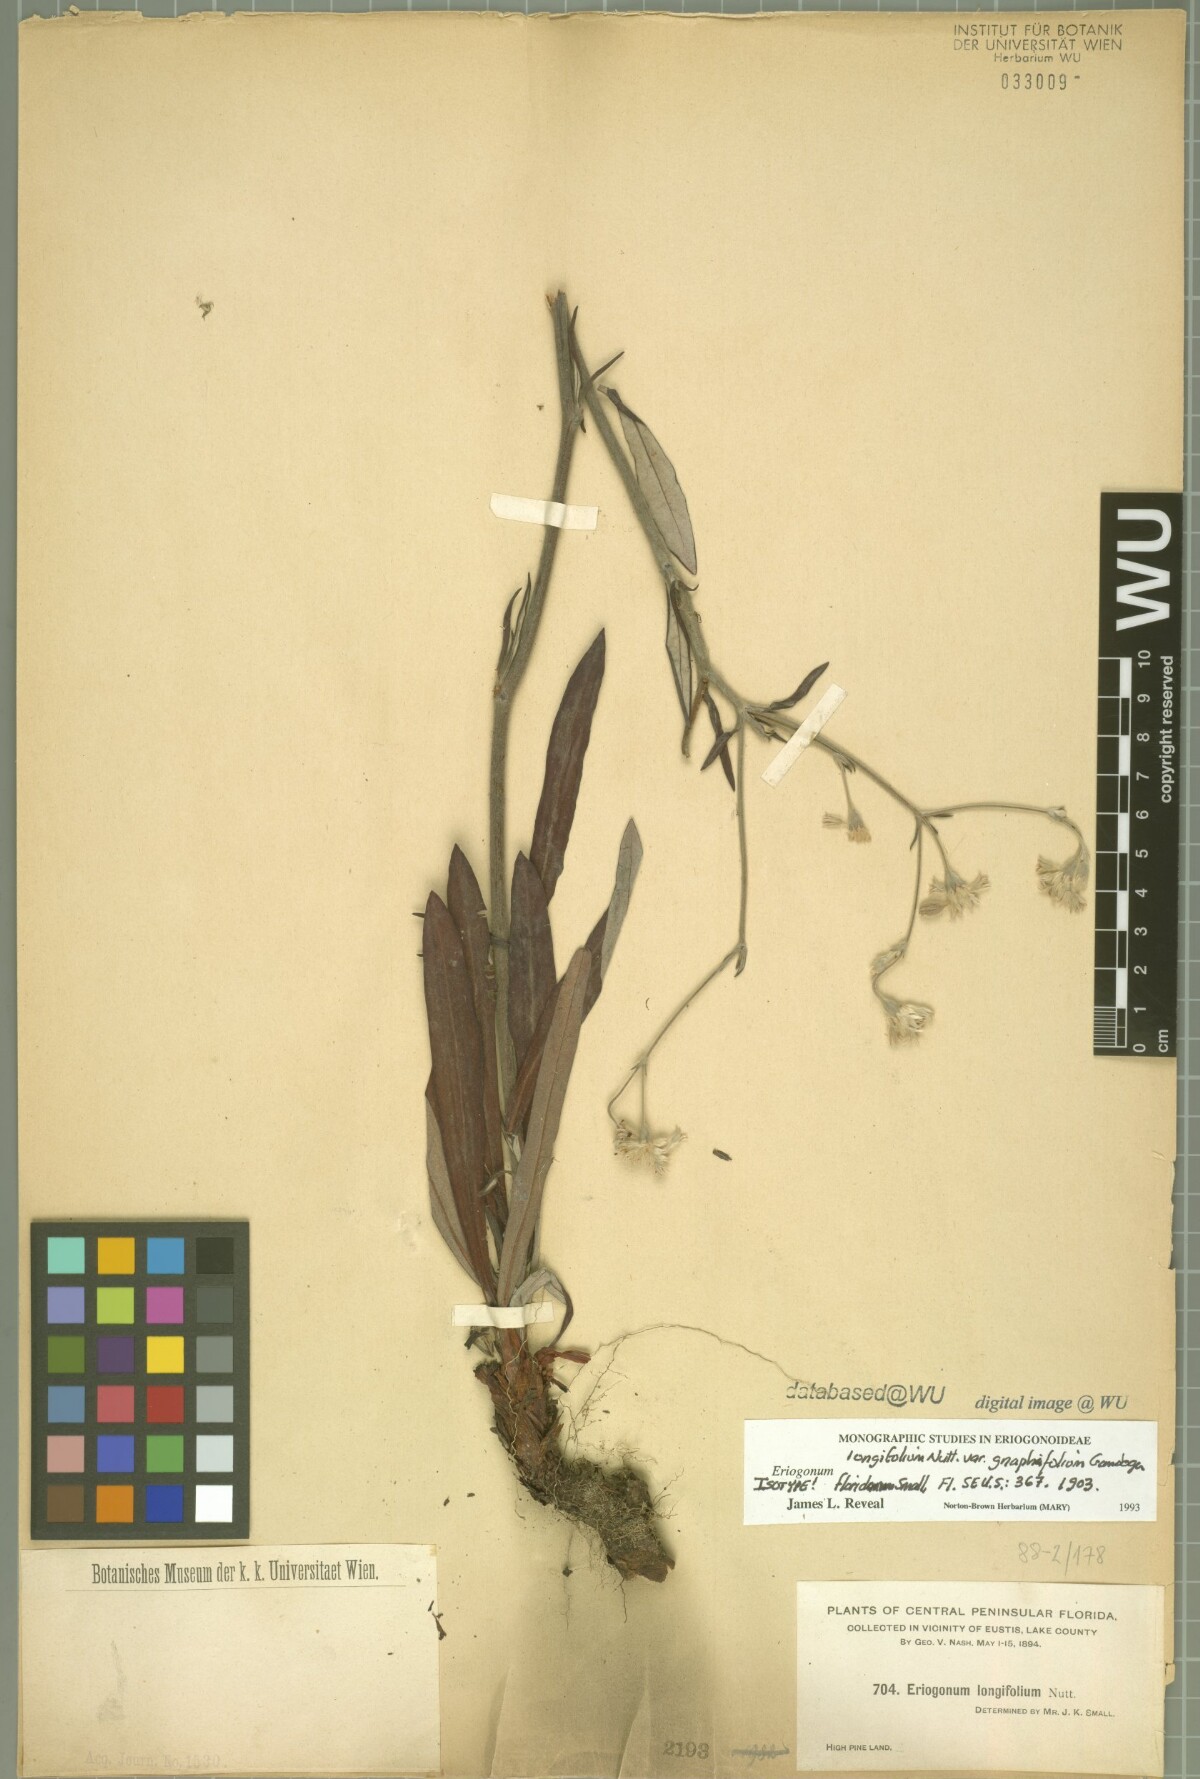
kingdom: Plantae
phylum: Tracheophyta
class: Magnoliopsida
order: Caryophyllales
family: Polygonaceae
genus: Eriogonum
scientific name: Eriogonum longifolium
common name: Longleaf wild buckwheat
